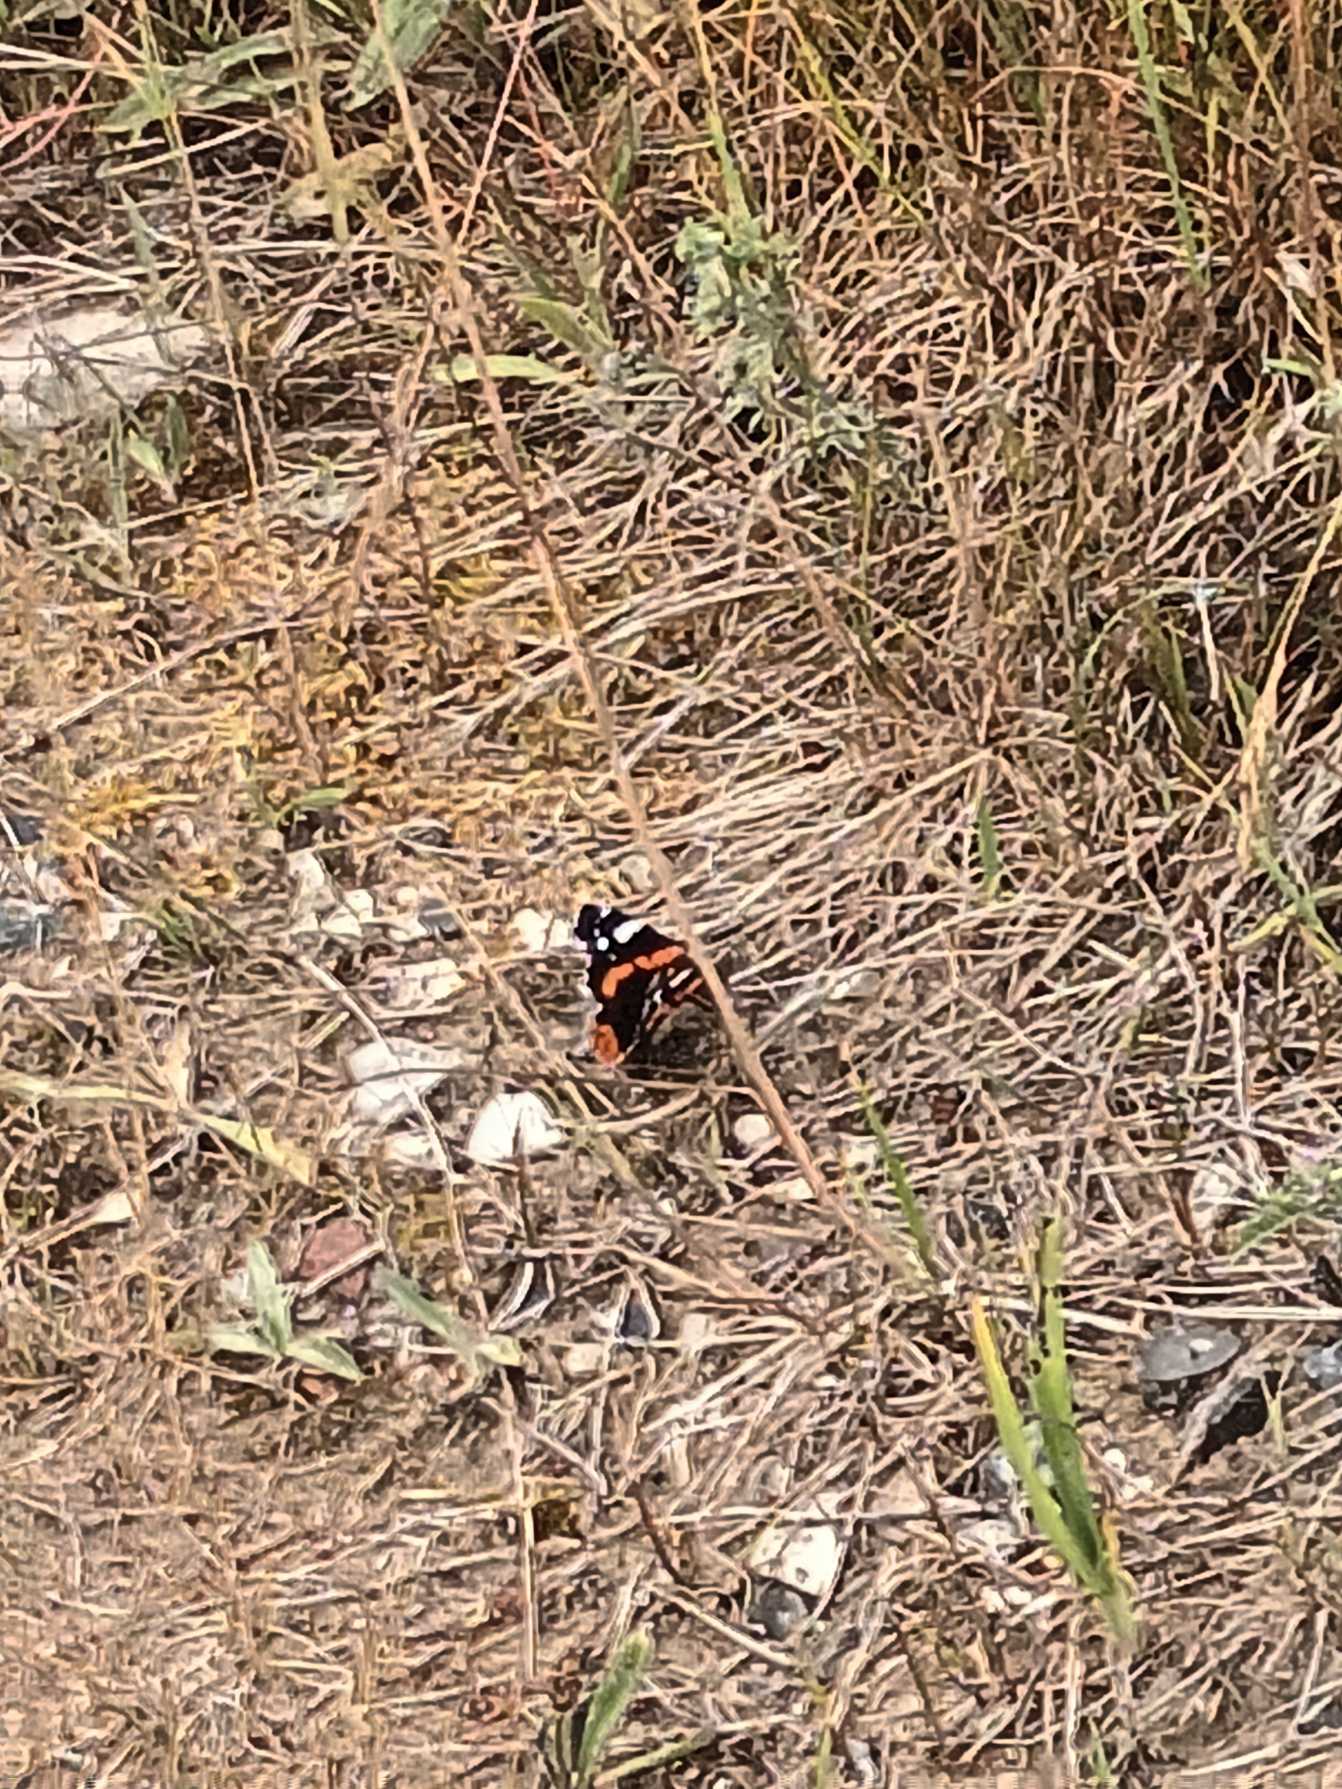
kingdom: Animalia
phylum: Arthropoda
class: Insecta
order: Lepidoptera
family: Nymphalidae
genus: Vanessa
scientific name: Vanessa atalanta
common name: Admiral
